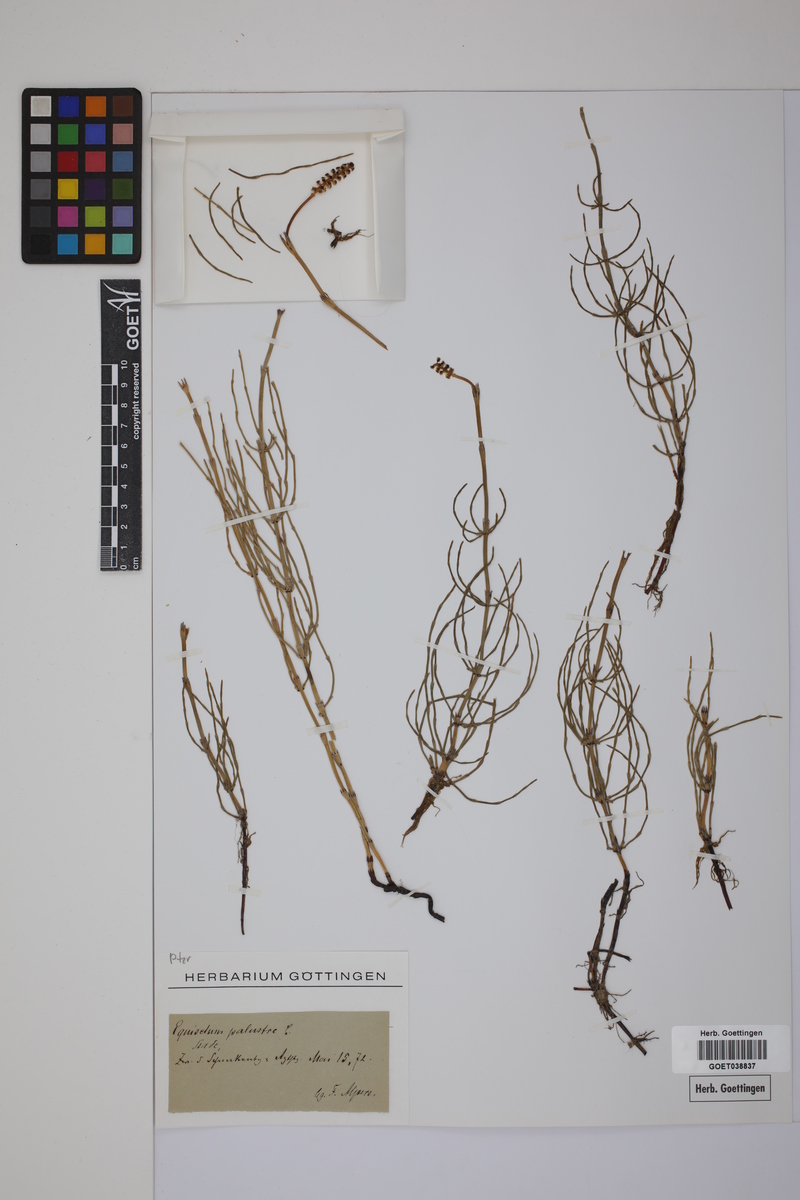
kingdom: Plantae
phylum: Tracheophyta
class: Polypodiopsida
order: Equisetales
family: Equisetaceae
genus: Equisetum
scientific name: Equisetum palustre
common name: Marsh horsetail
